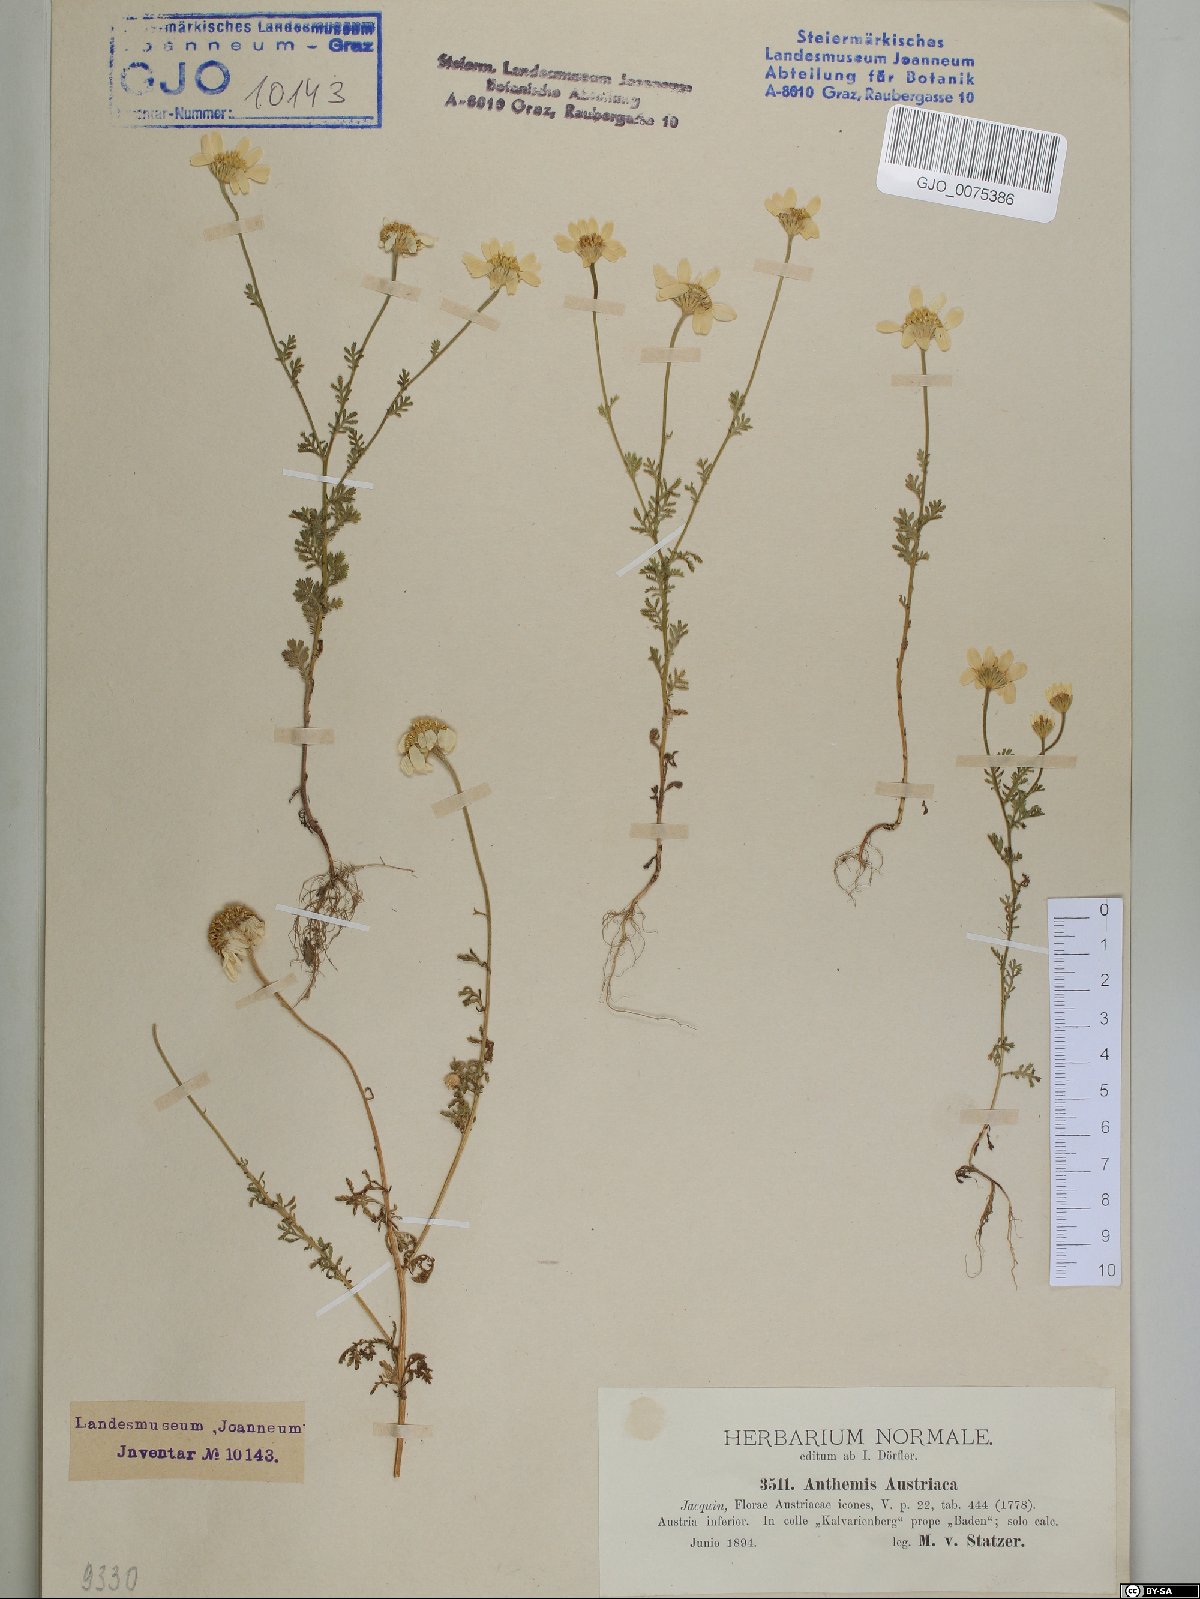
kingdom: Plantae
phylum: Tracheophyta
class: Magnoliopsida
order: Asterales
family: Asteraceae
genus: Cota
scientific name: Cota austriaca
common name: Austrian chamomile
